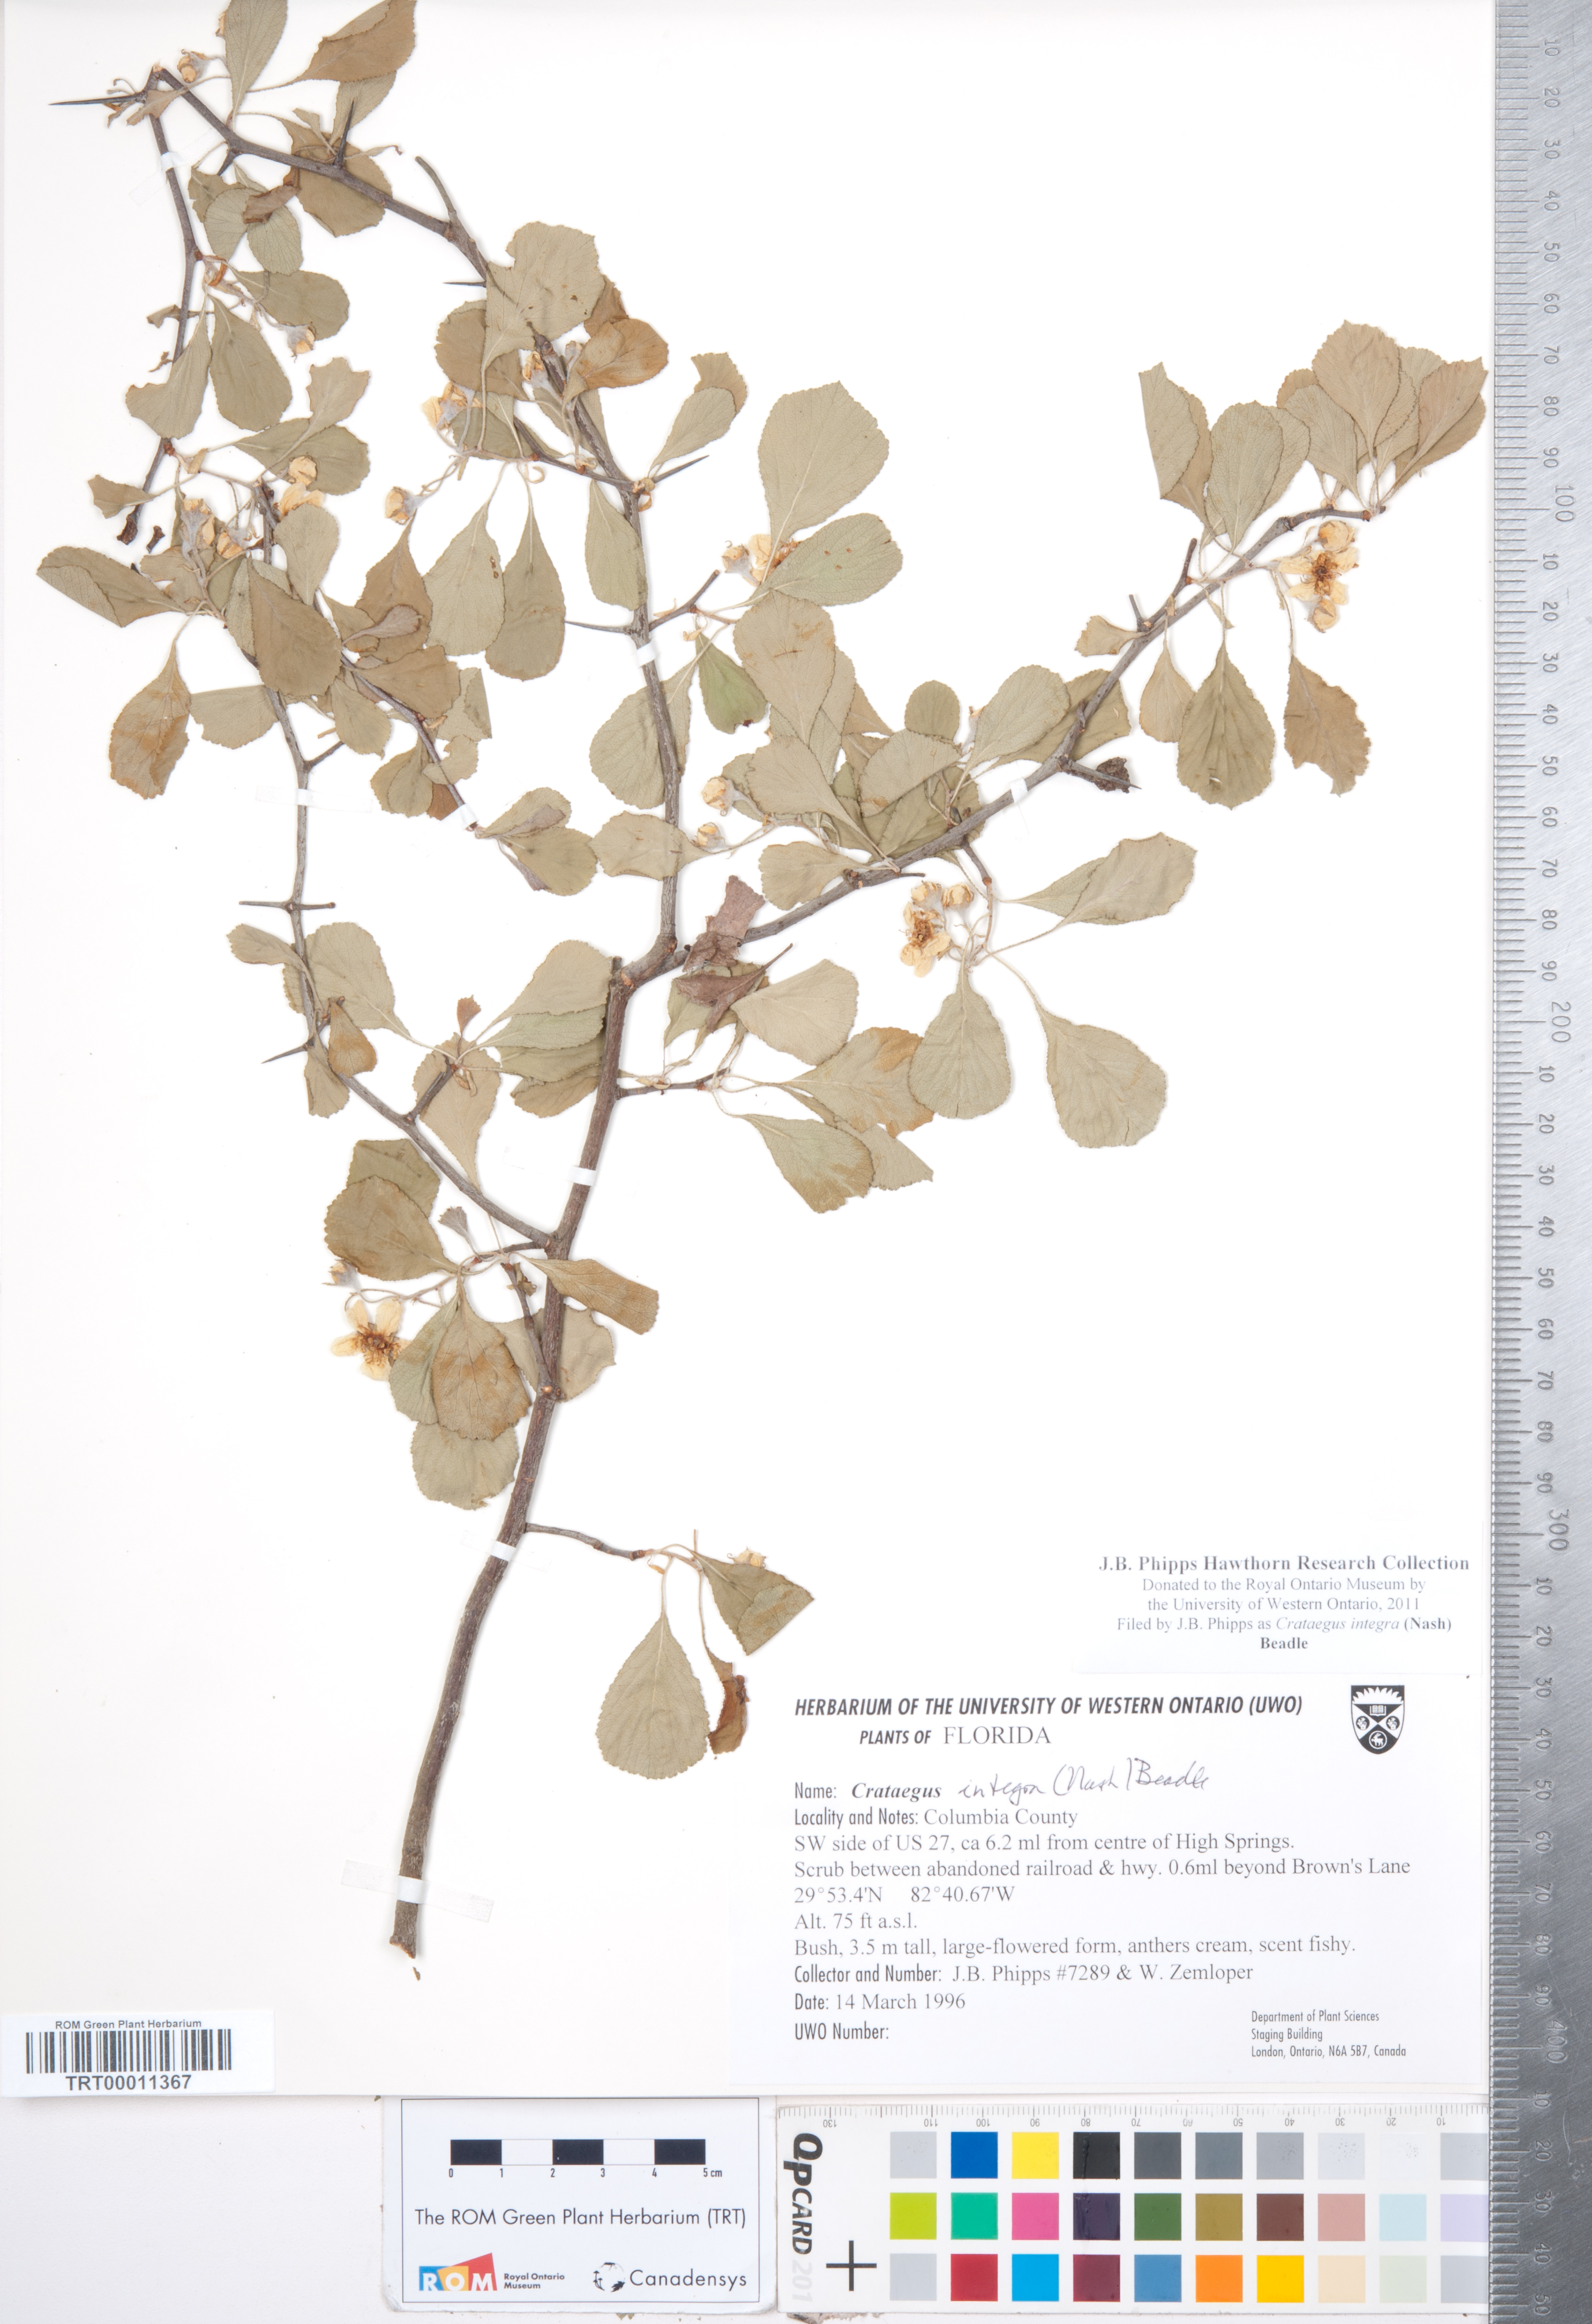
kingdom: Plantae
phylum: Tracheophyta
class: Magnoliopsida
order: Rosales
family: Rosaceae
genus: Crataegus
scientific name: Crataegus lassa
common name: Florida hawthorn
